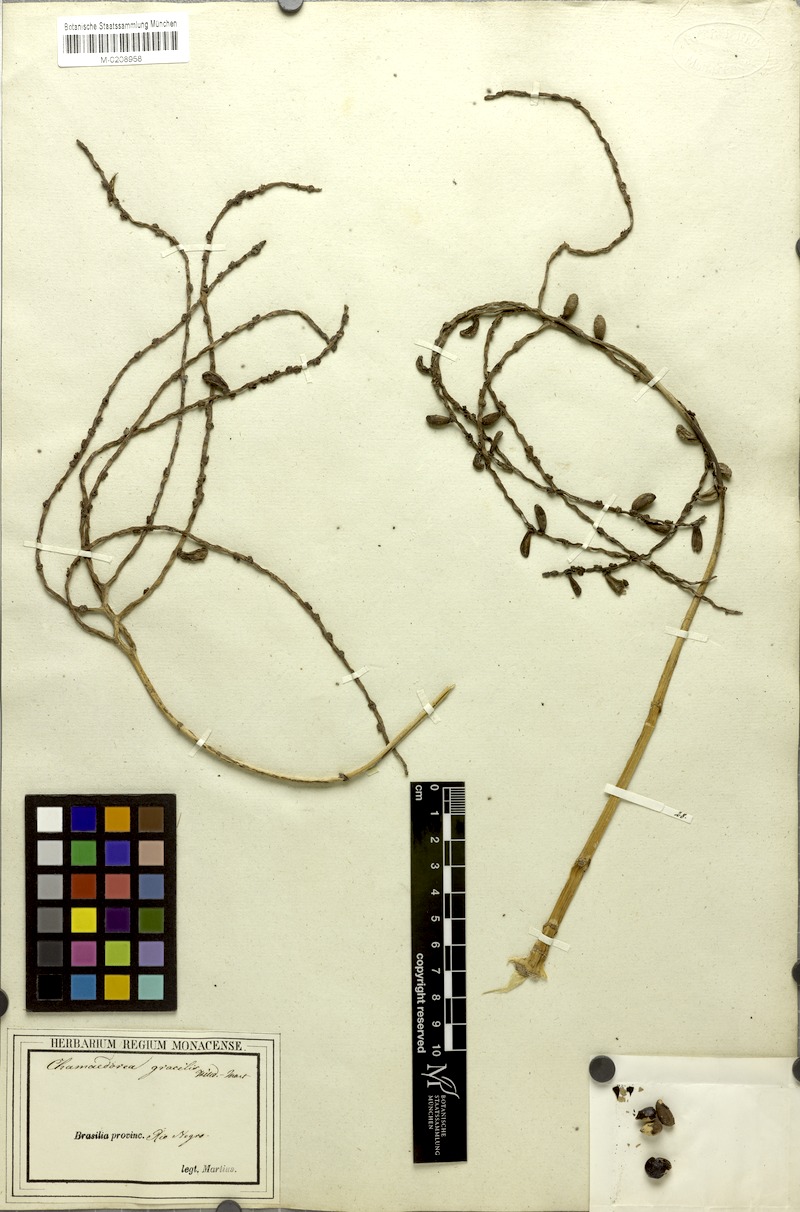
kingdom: Plantae
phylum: Tracheophyta
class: Liliopsida
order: Arecales
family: Arecaceae
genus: Chamaedorea
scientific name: Chamaedorea pinnatifrons
